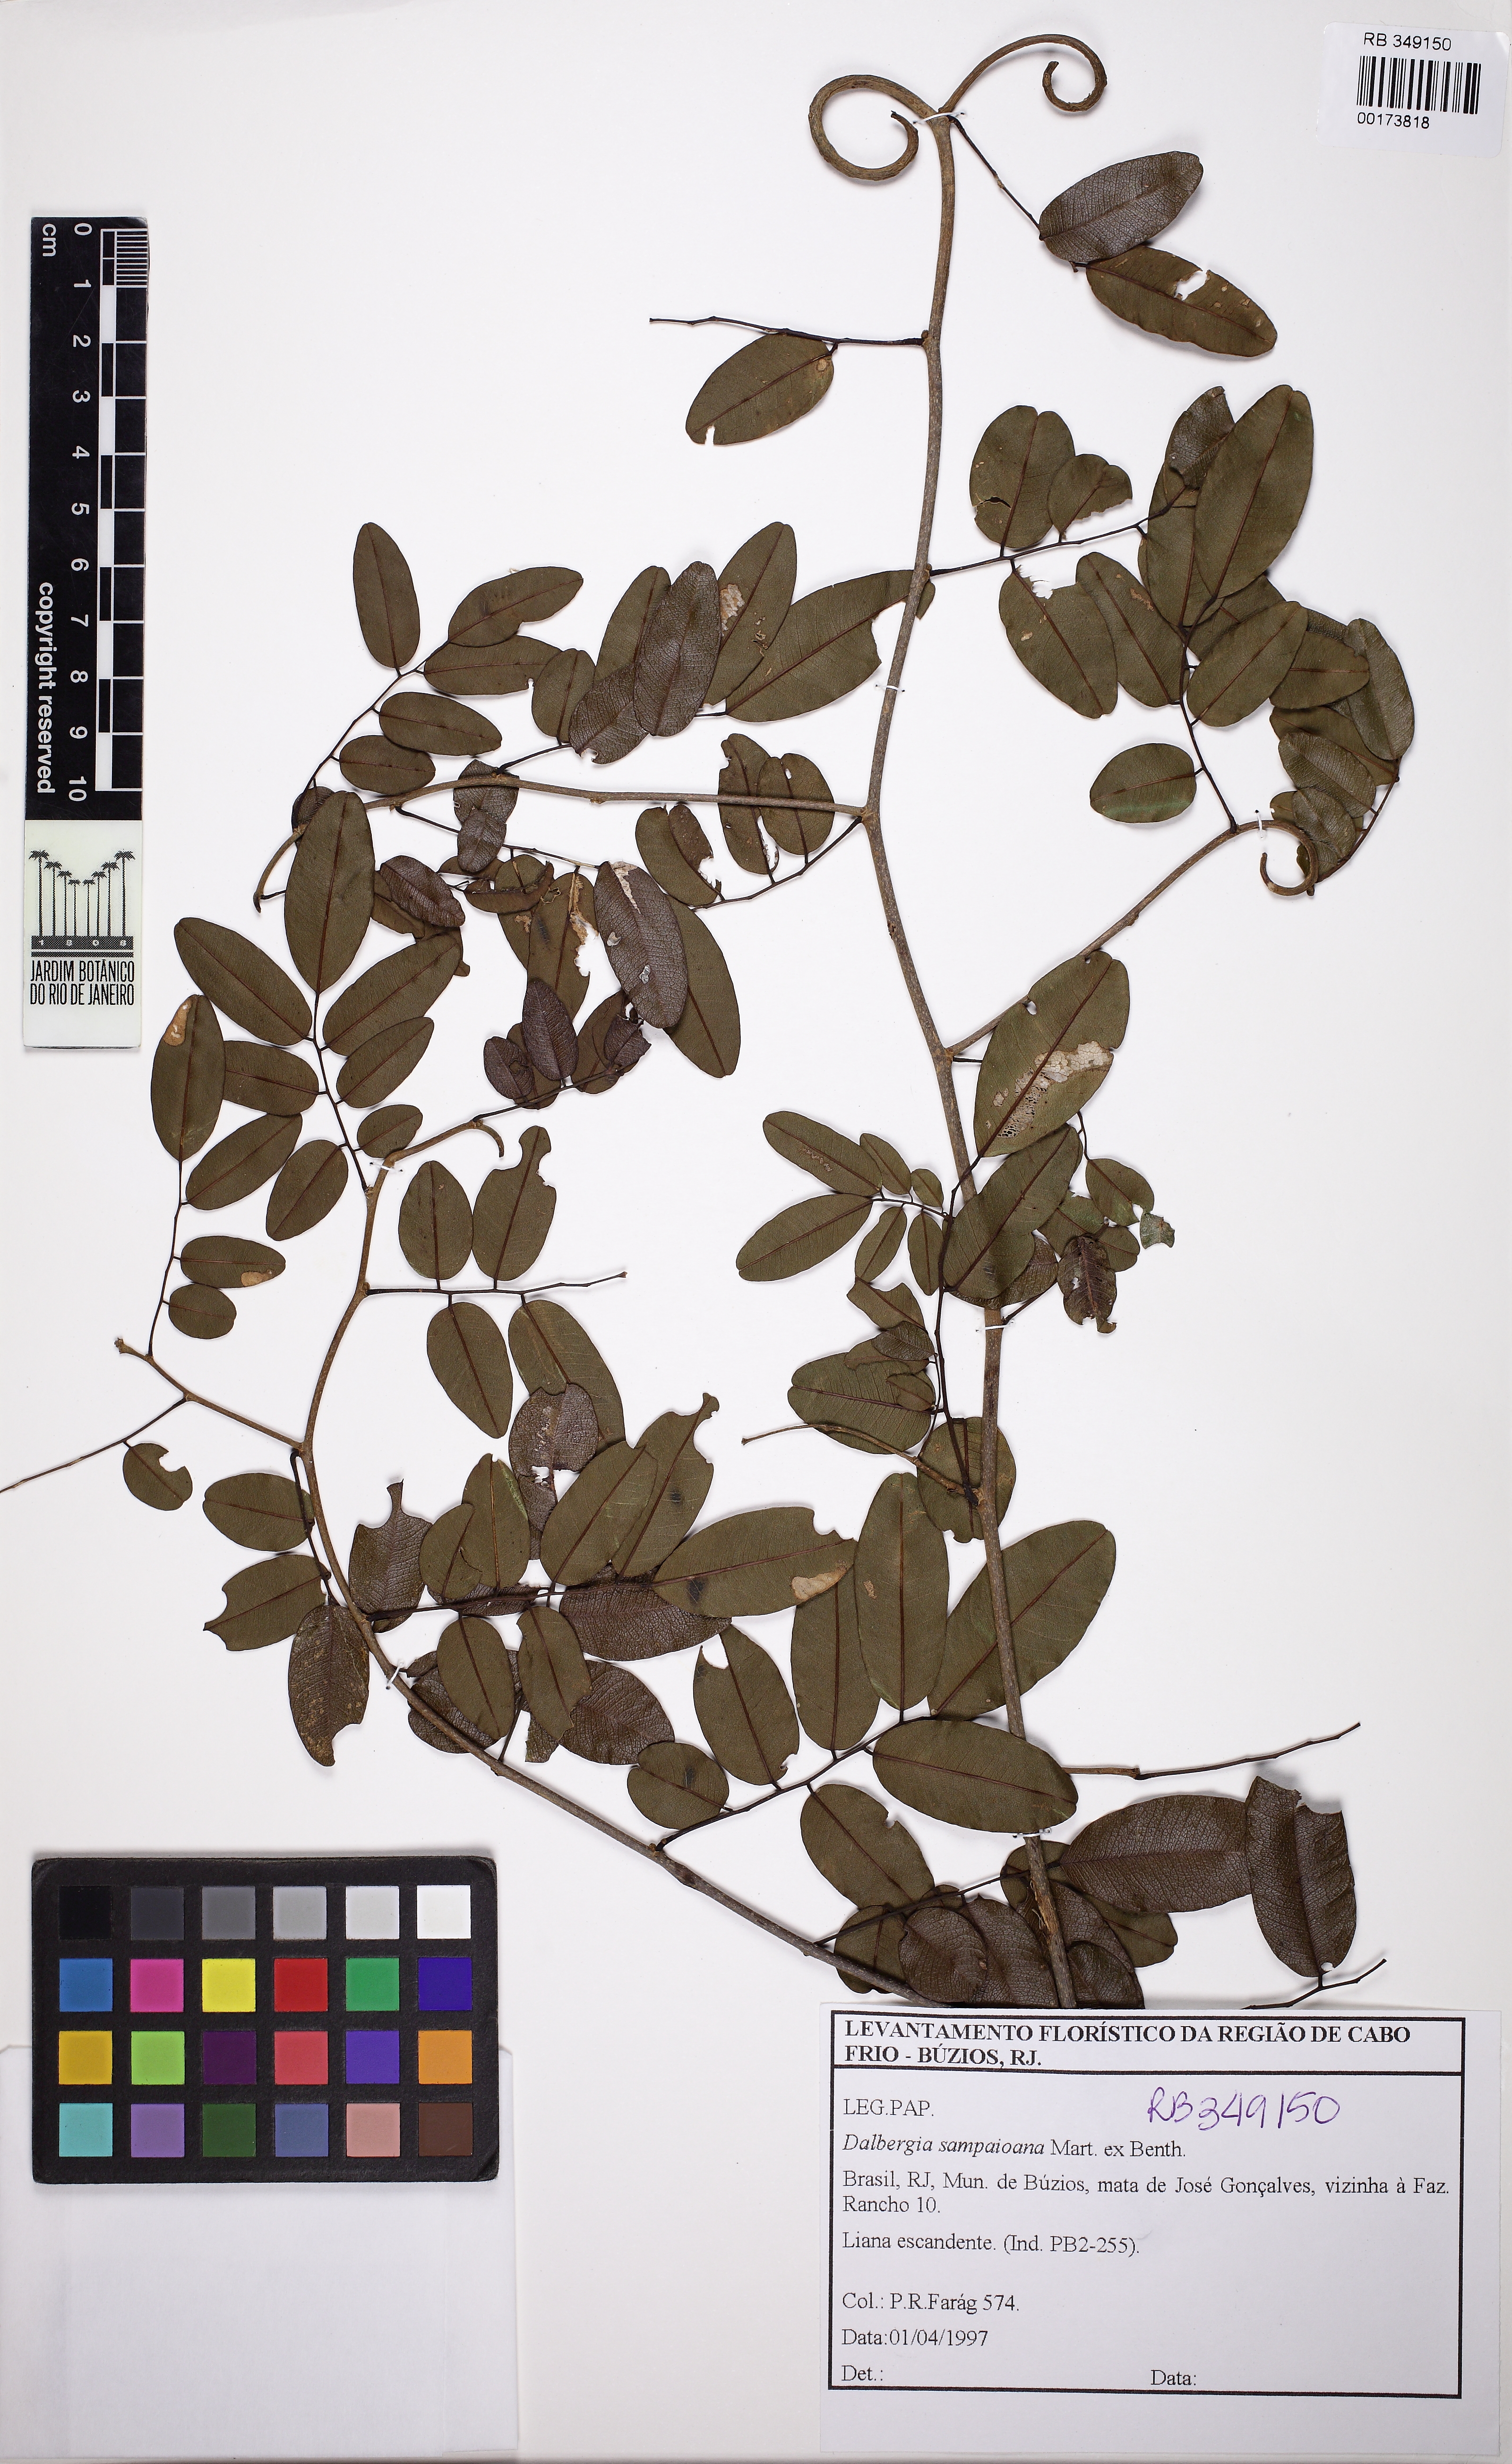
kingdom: Plantae
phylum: Tracheophyta
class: Magnoliopsida
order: Fabales
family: Fabaceae
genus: Dalbergia
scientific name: Dalbergia sampaioana
